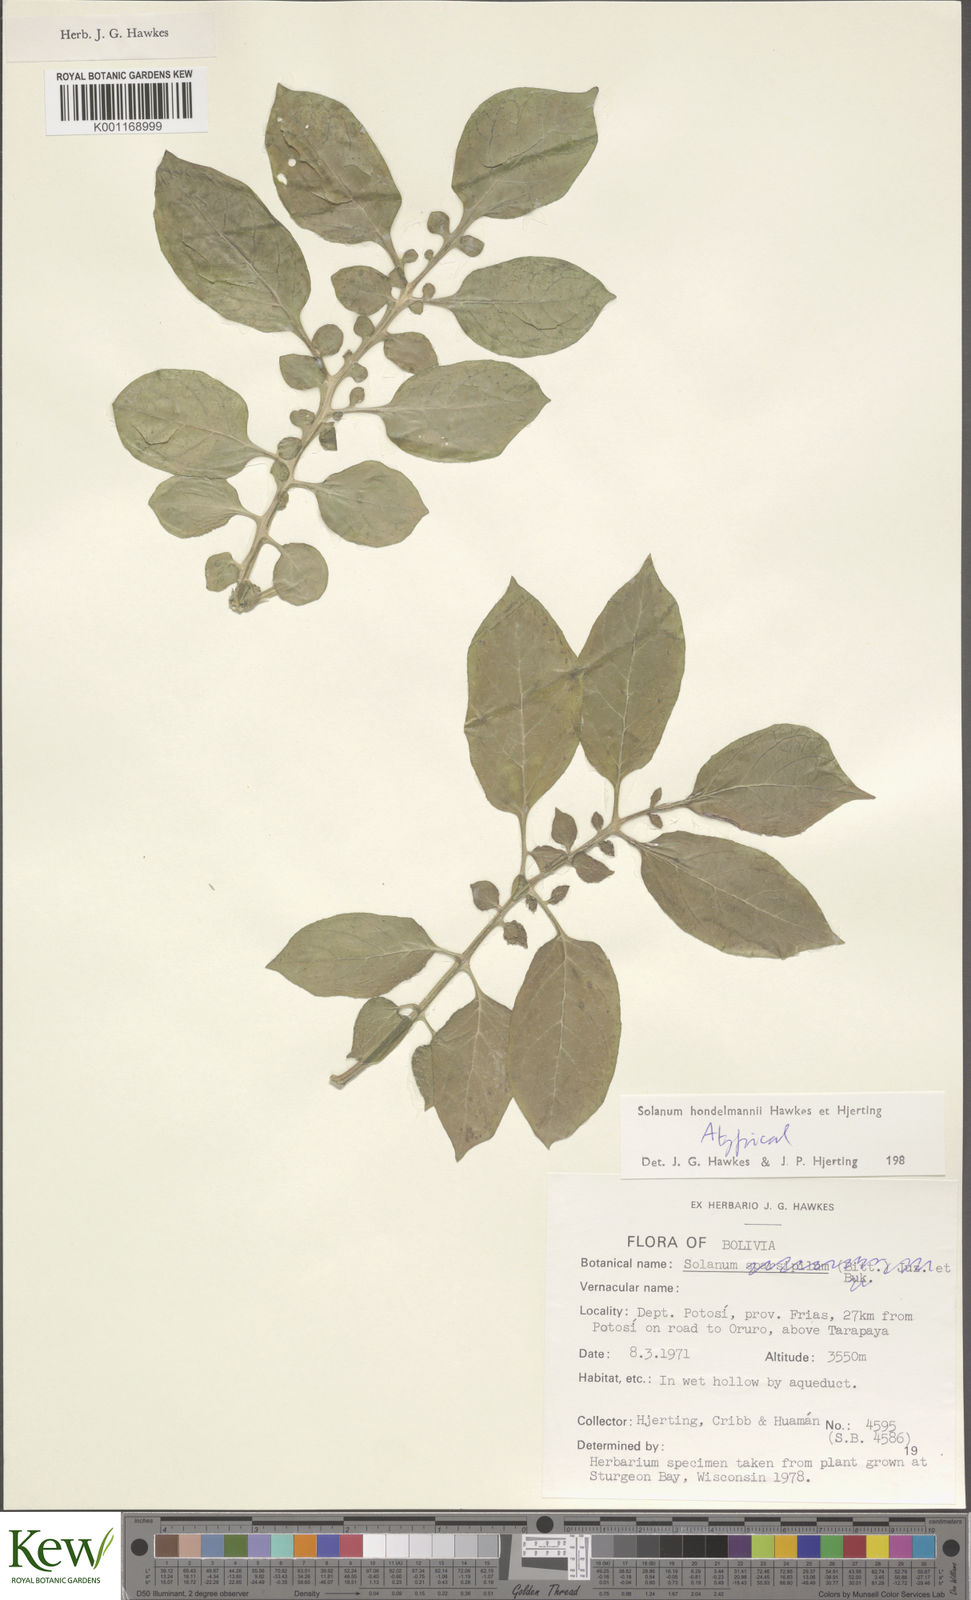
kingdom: Plantae
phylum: Tracheophyta
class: Magnoliopsida
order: Solanales
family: Solanaceae
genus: Solanum
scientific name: Solanum brevicaule
